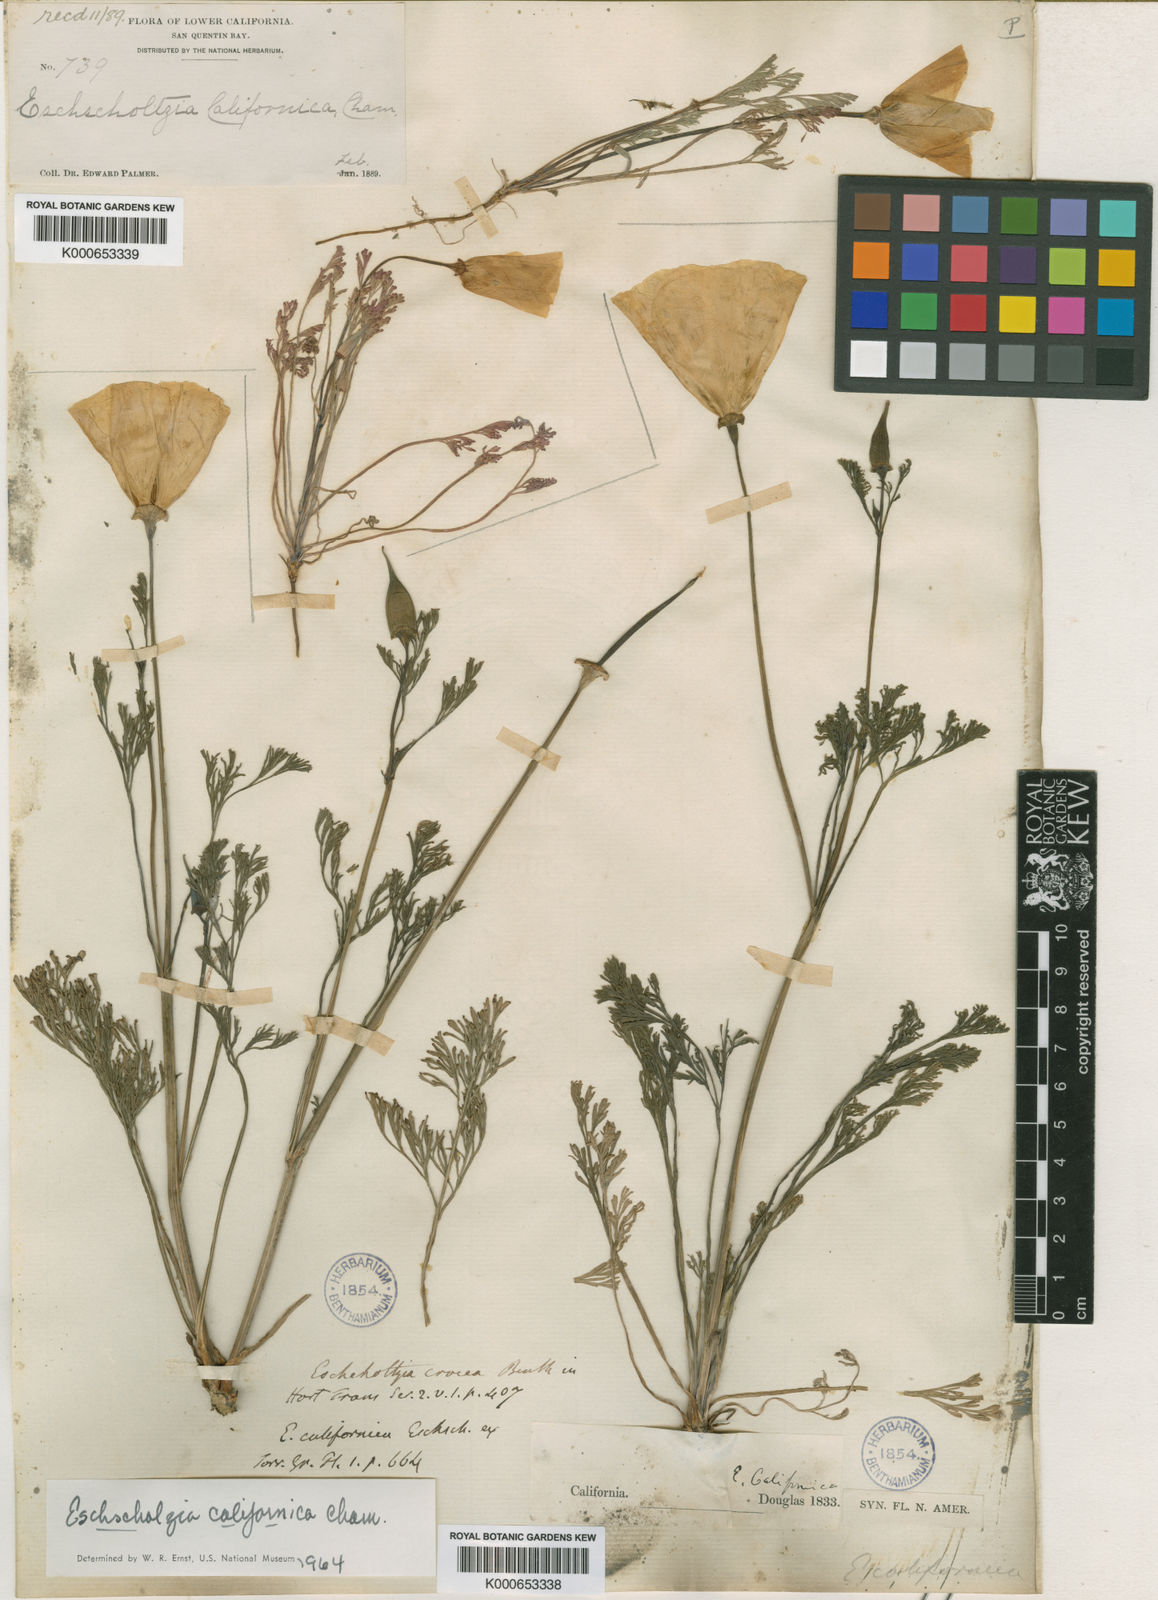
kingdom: Plantae
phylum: Tracheophyta
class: Magnoliopsida
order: Ranunculales
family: Papaveraceae
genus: Eschscholzia
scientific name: Eschscholzia californica
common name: California poppy
